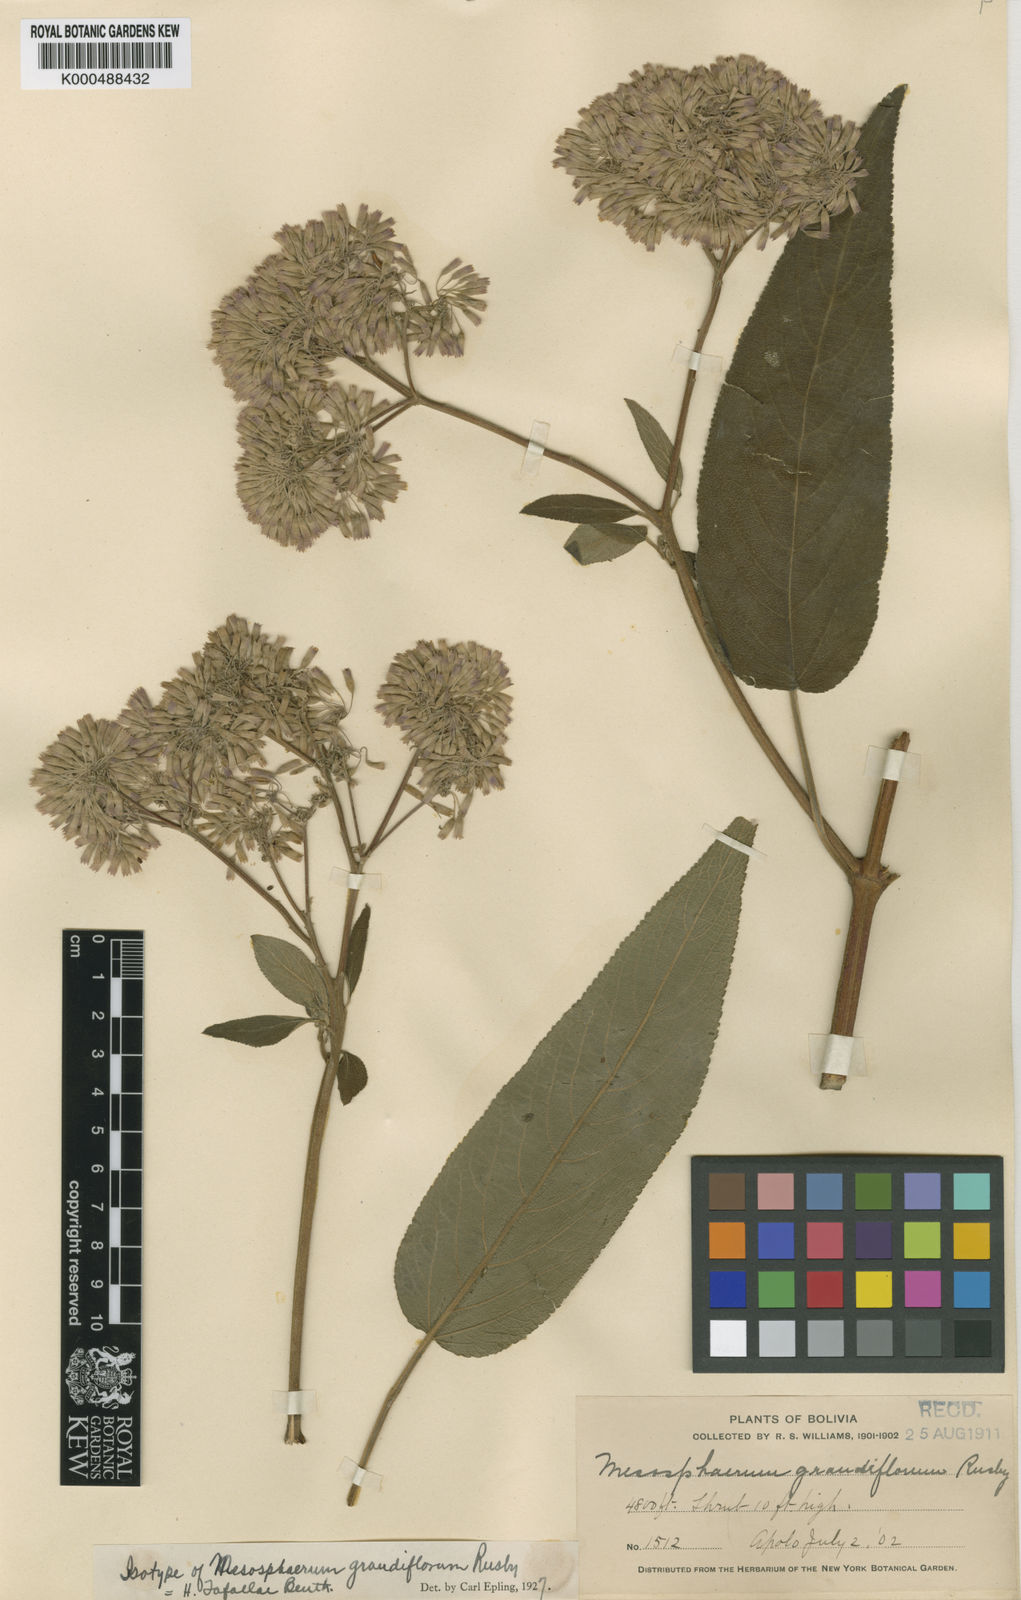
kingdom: Plantae
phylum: Tracheophyta
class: Magnoliopsida
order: Lamiales
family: Lamiaceae
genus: Condea
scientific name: Condea tafallae
